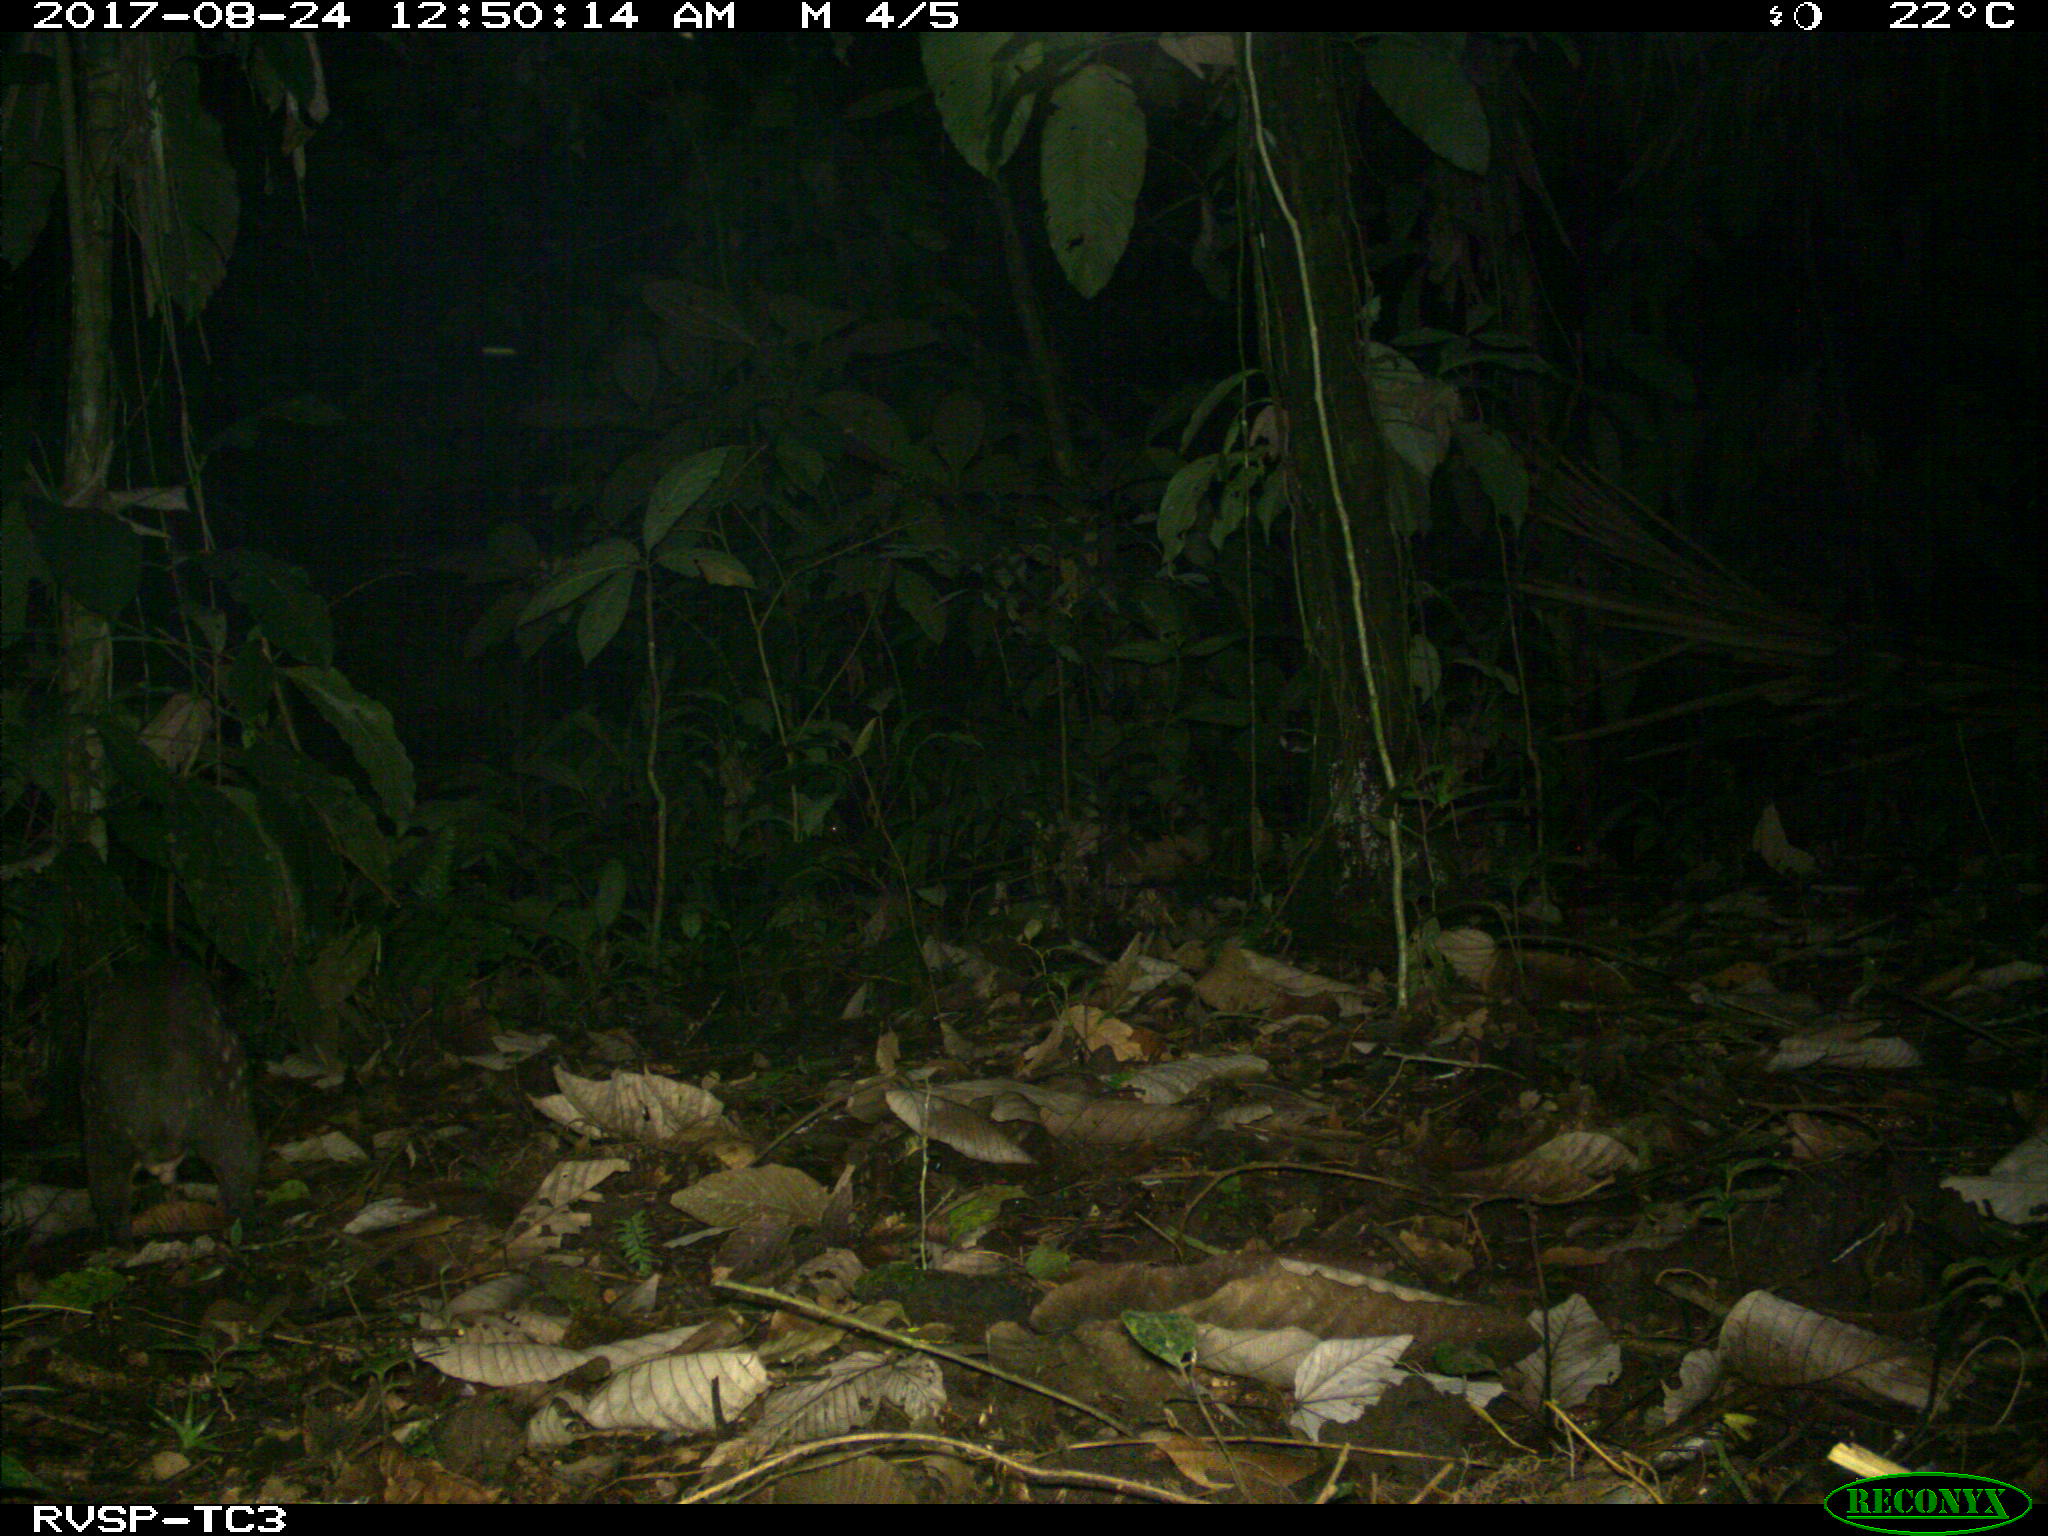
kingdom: Animalia
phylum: Chordata
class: Mammalia
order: Rodentia
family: Cuniculidae
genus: Cuniculus
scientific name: Cuniculus paca
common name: Lowland paca
